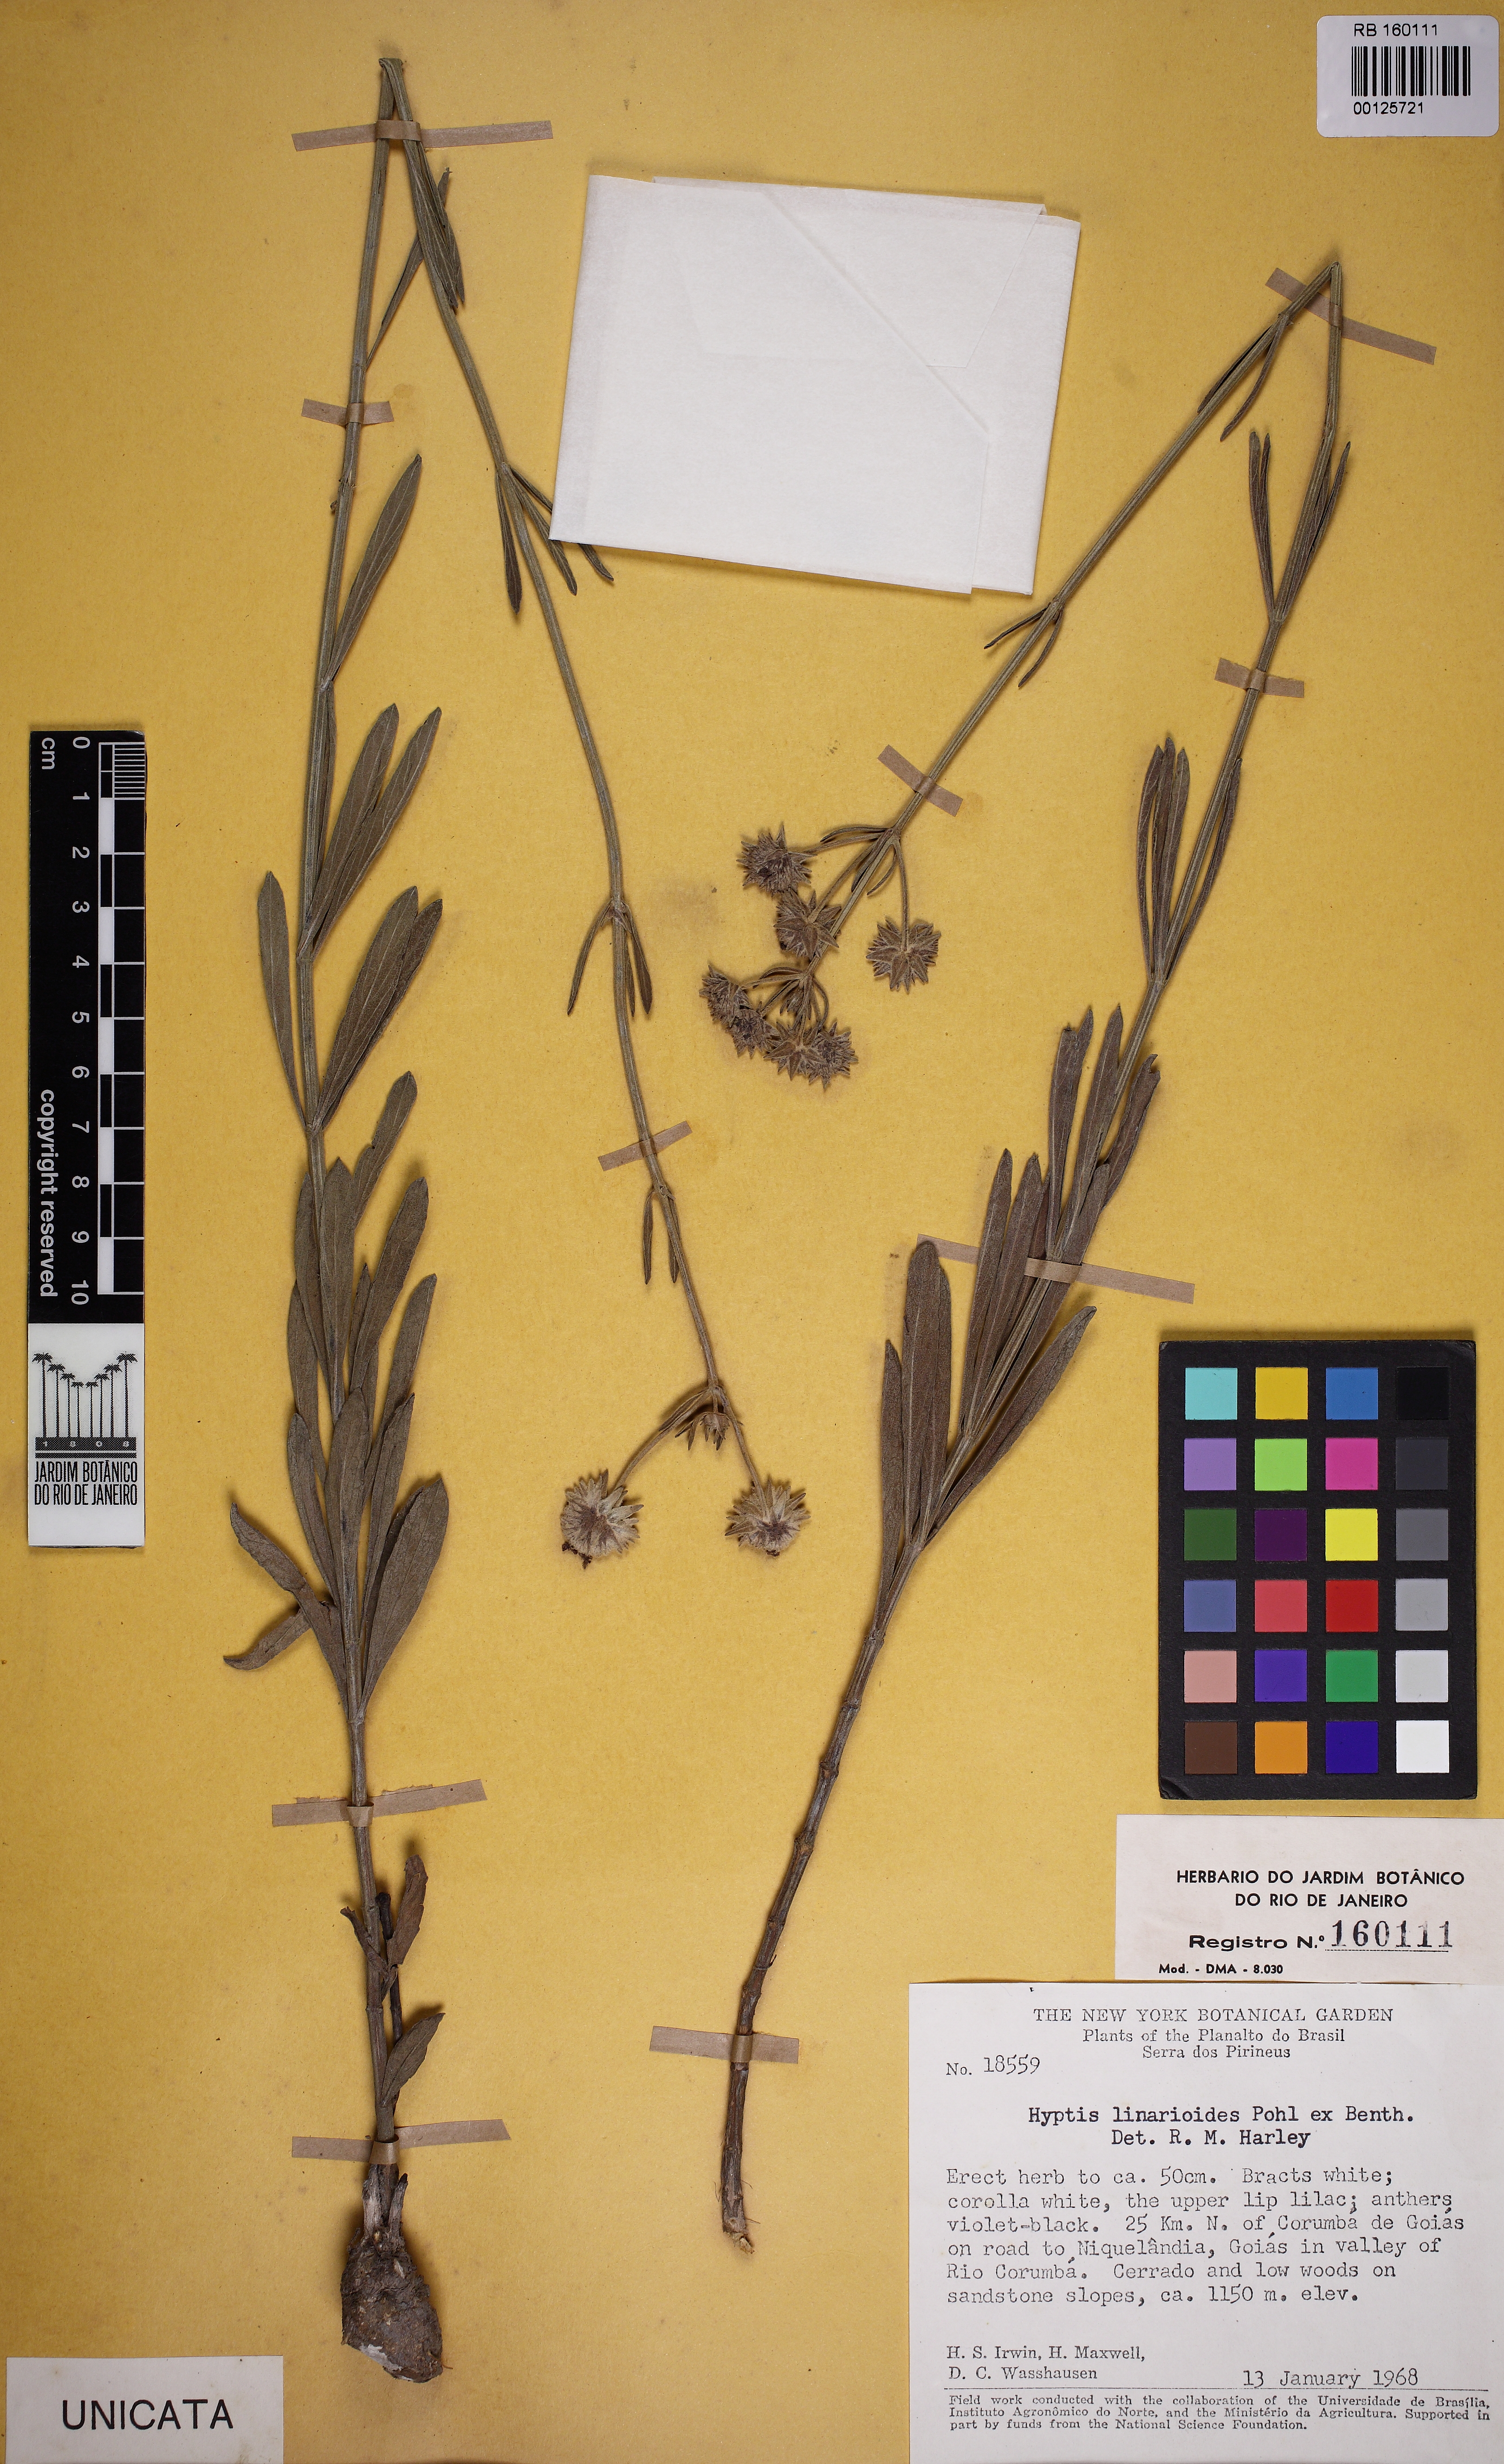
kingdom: Plantae
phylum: Tracheophyta
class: Magnoliopsida
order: Lamiales
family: Lamiaceae
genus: Hyptis
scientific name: Hyptis linarioides
